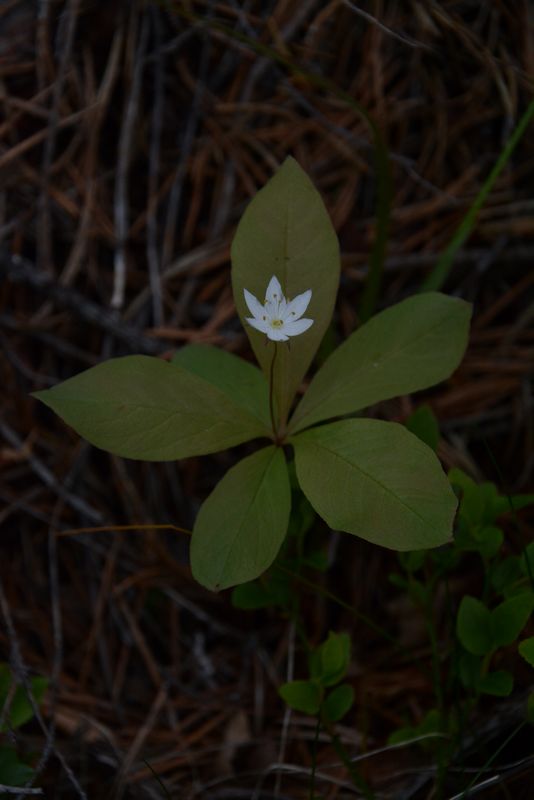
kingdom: Plantae
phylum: Tracheophyta
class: Magnoliopsida
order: Ericales
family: Primulaceae
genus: Lysimachia
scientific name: Lysimachia europaea
